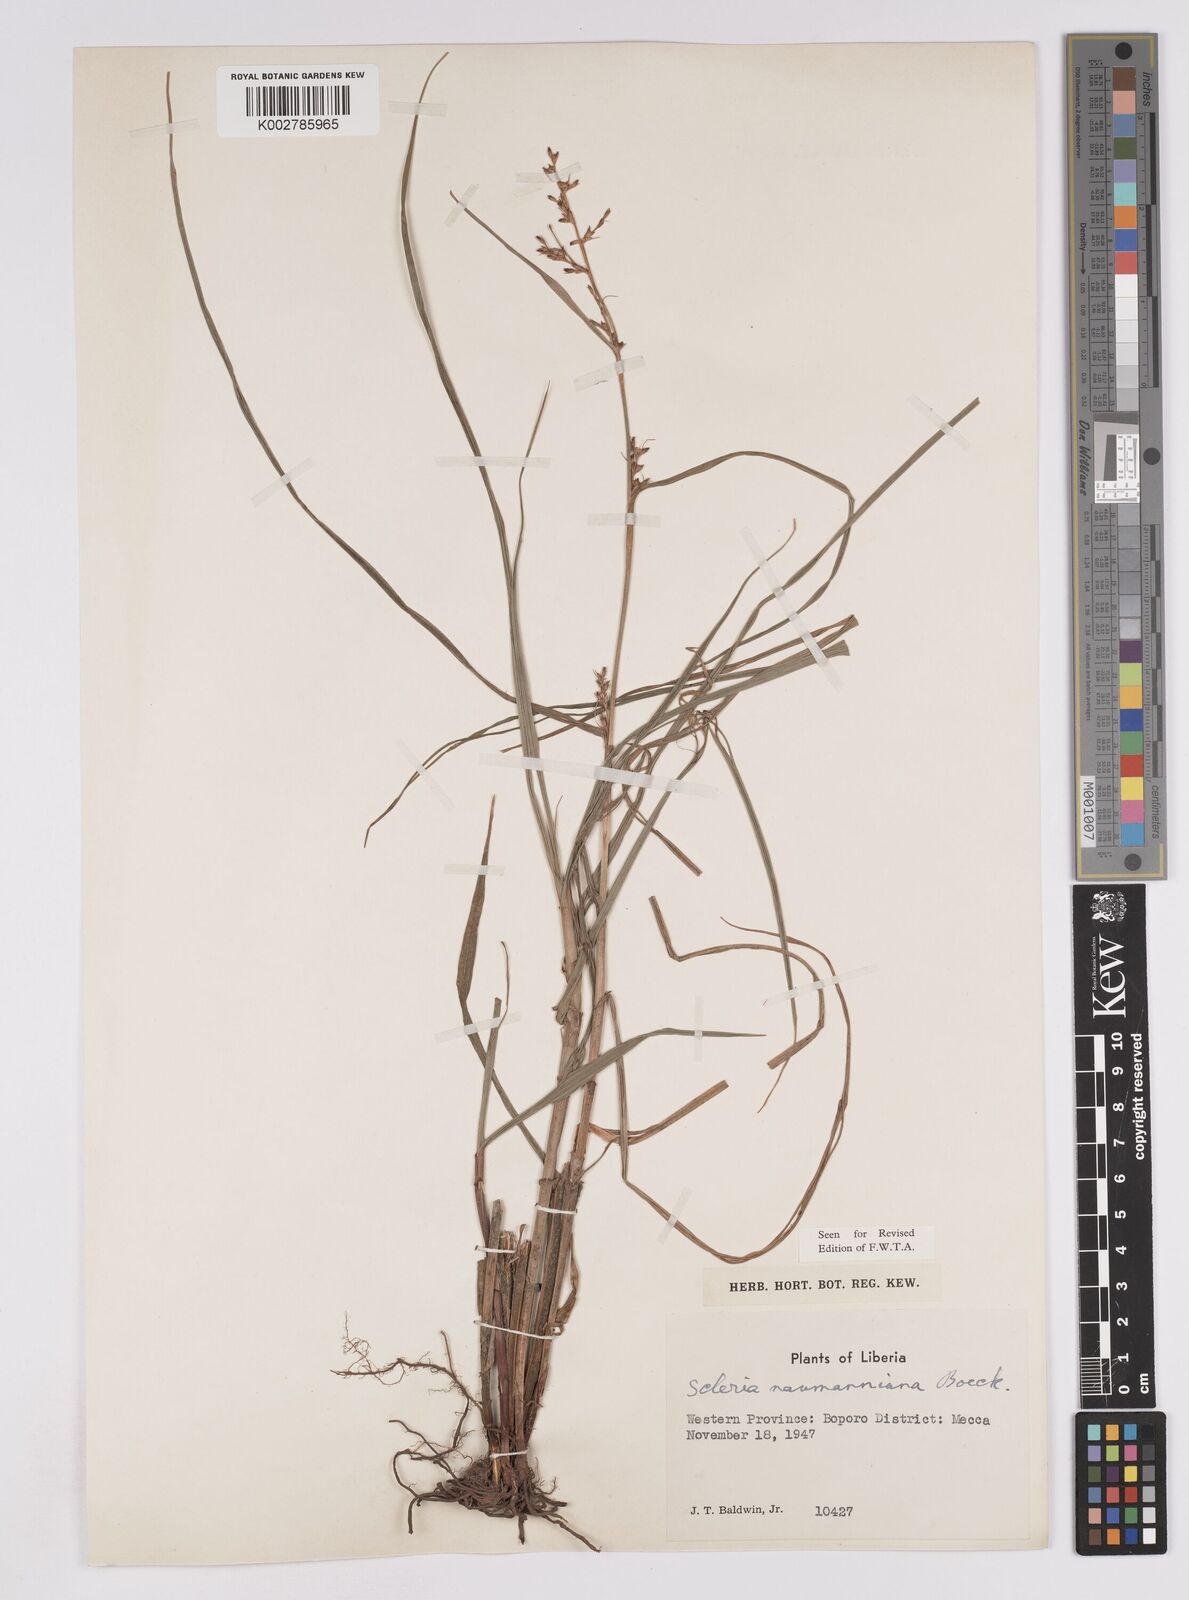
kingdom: Plantae
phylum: Tracheophyta
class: Liliopsida
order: Poales
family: Cyperaceae
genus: Scleria
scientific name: Scleria naumanniana
